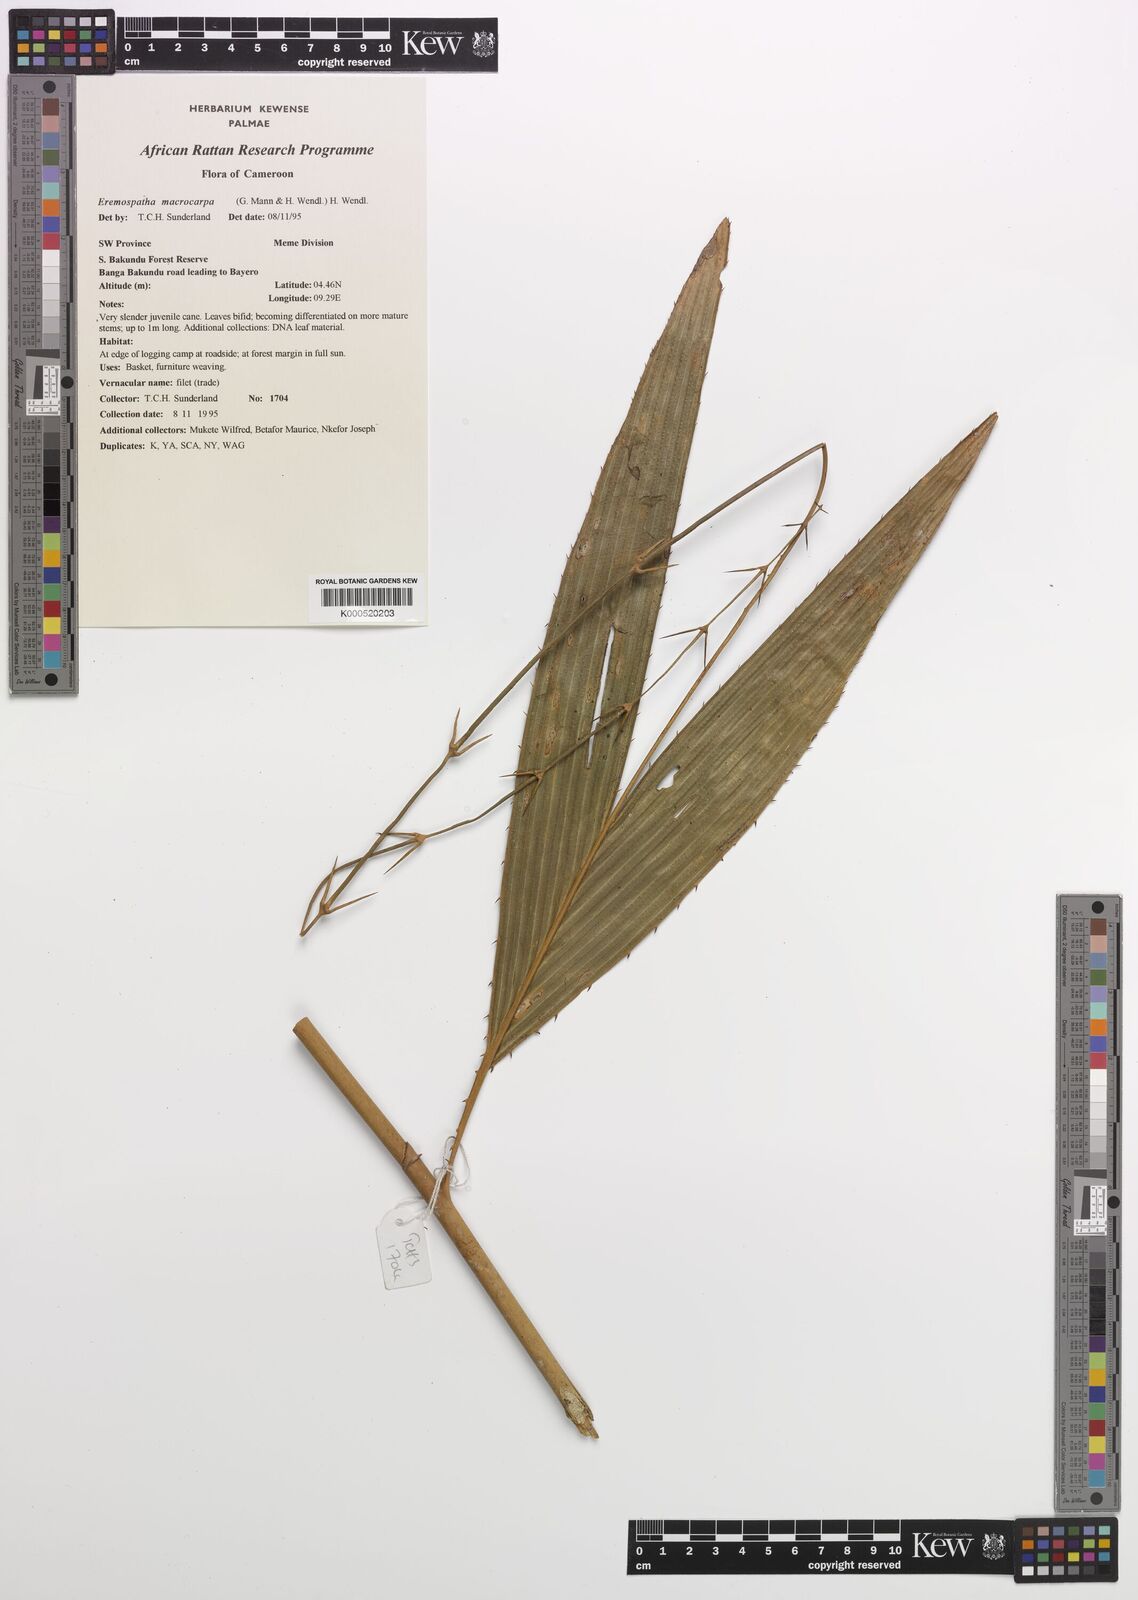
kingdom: Plantae
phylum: Tracheophyta
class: Liliopsida
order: Arecales
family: Arecaceae
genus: Eremospatha
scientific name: Eremospatha
